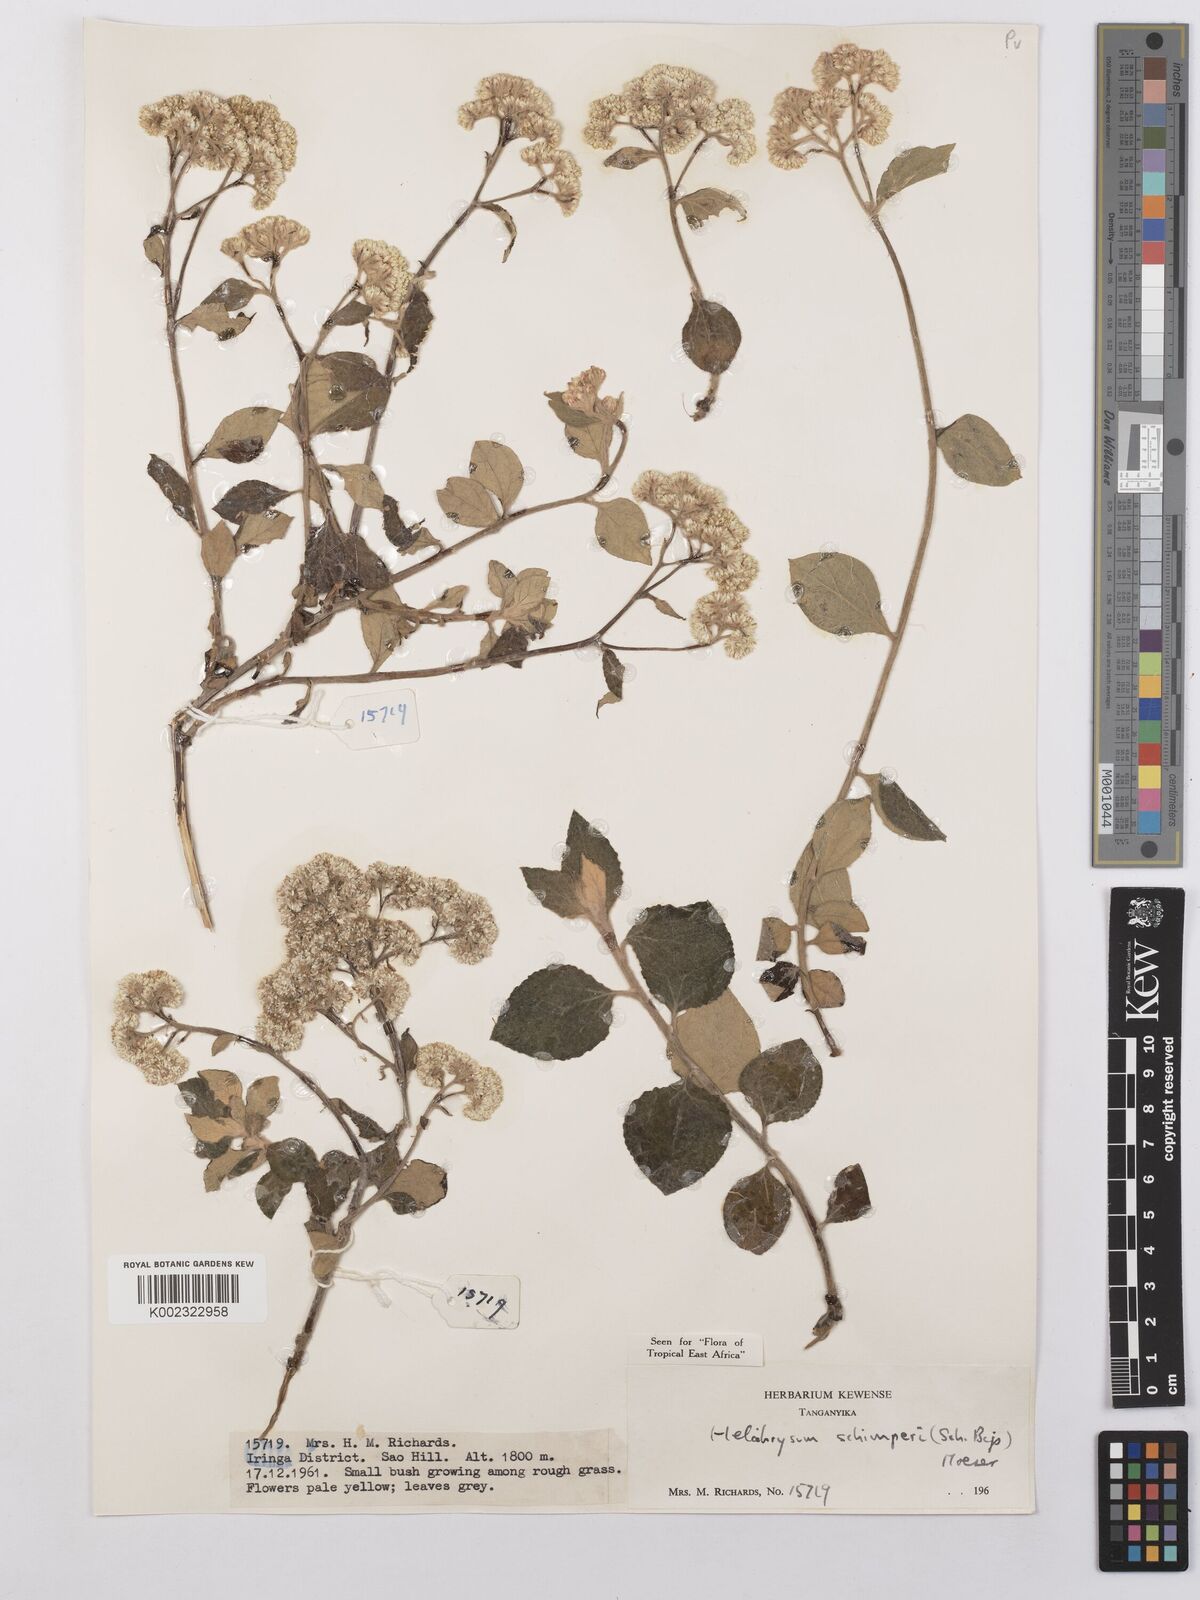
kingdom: Plantae
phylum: Tracheophyta
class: Magnoliopsida
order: Asterales
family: Asteraceae
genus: Helichrysum
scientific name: Helichrysum schimperi
